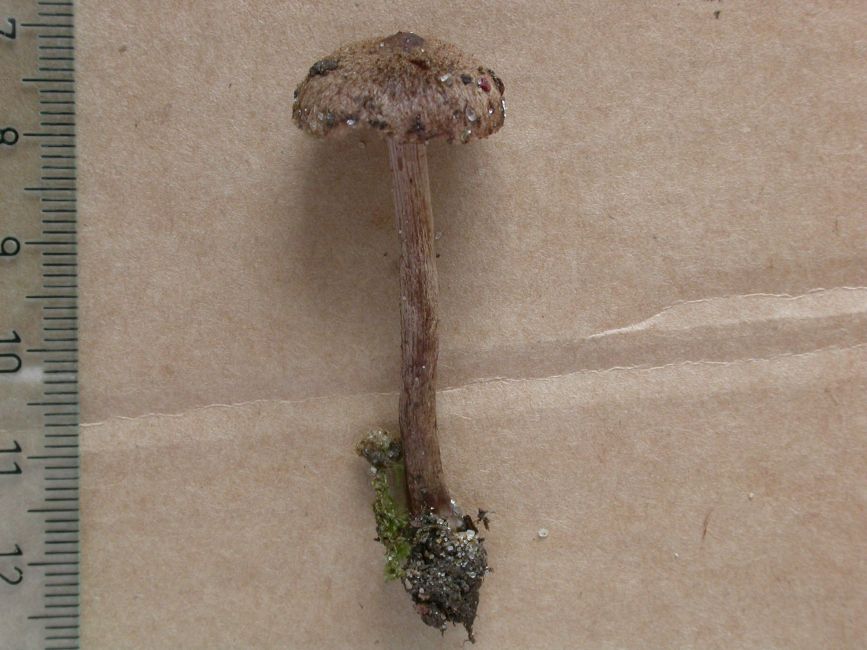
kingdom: Fungi
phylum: Basidiomycota
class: Agaricomycetes
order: Agaricales
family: Inocybaceae
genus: Inocybe
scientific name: Inocybe lacera
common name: laset trævlhat
